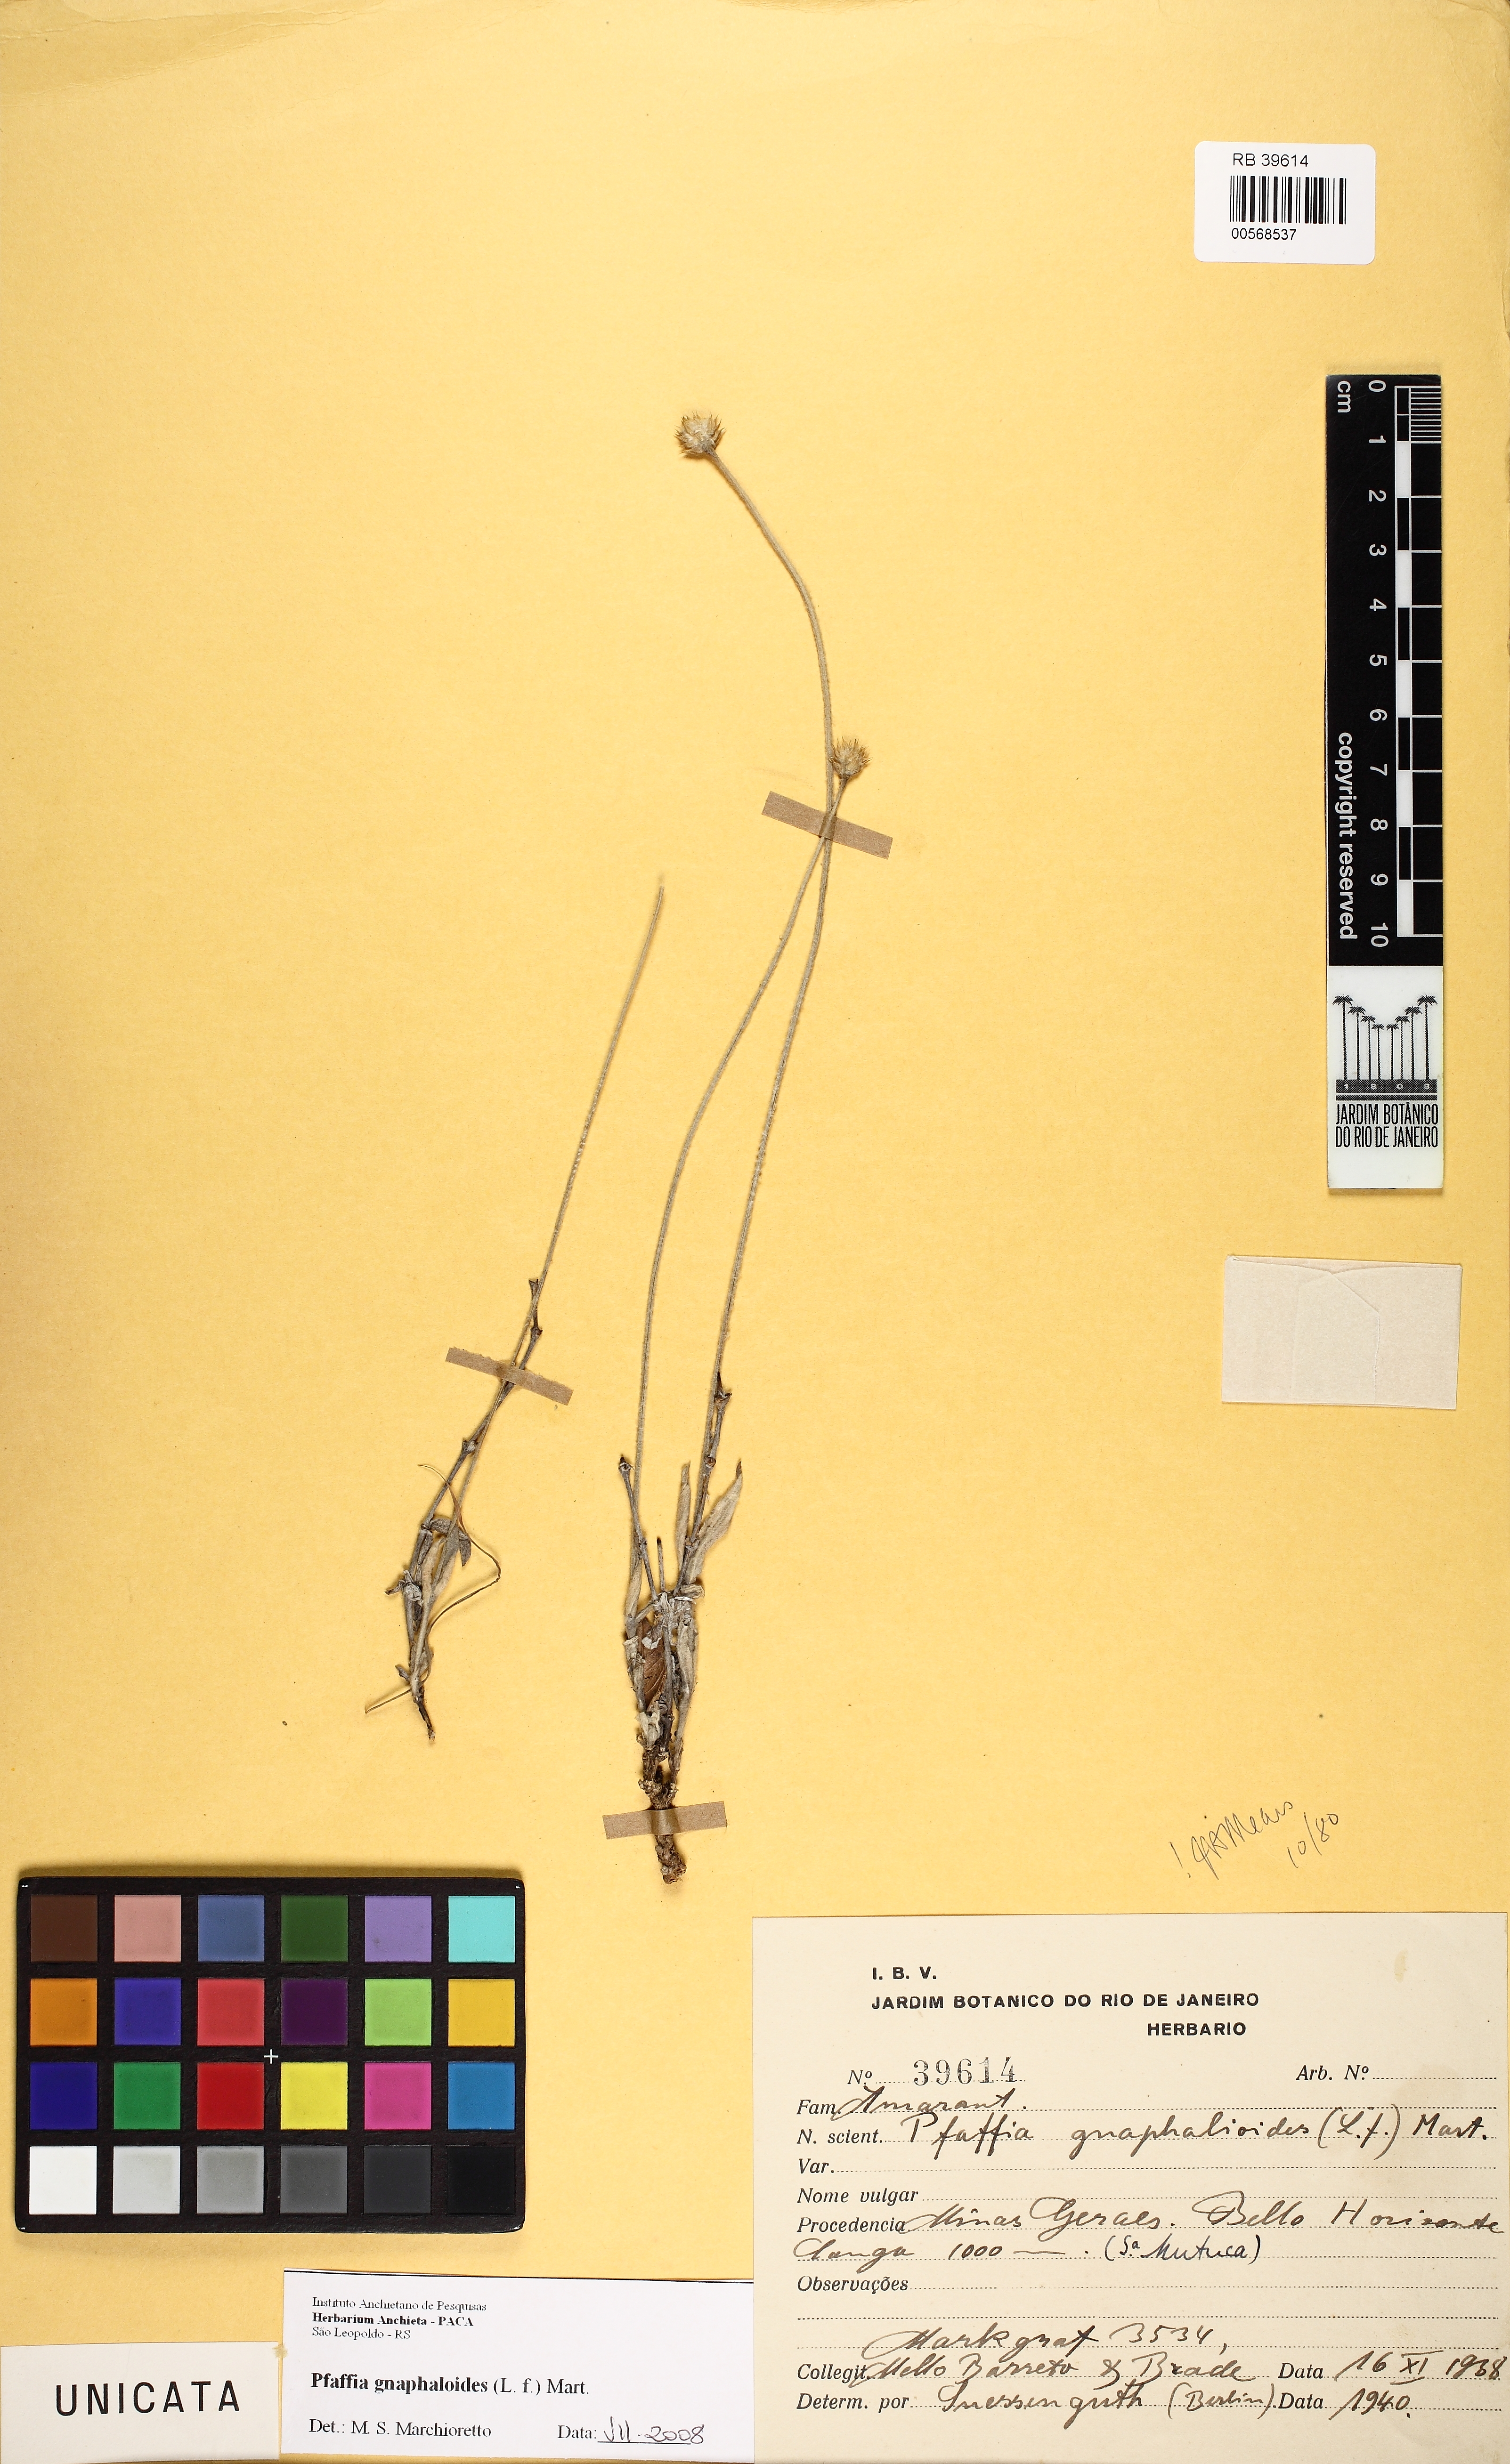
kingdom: Plantae
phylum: Tracheophyta
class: Magnoliopsida
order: Caryophyllales
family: Amaranthaceae
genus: Pfaffia
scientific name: Pfaffia gnaphaloides
